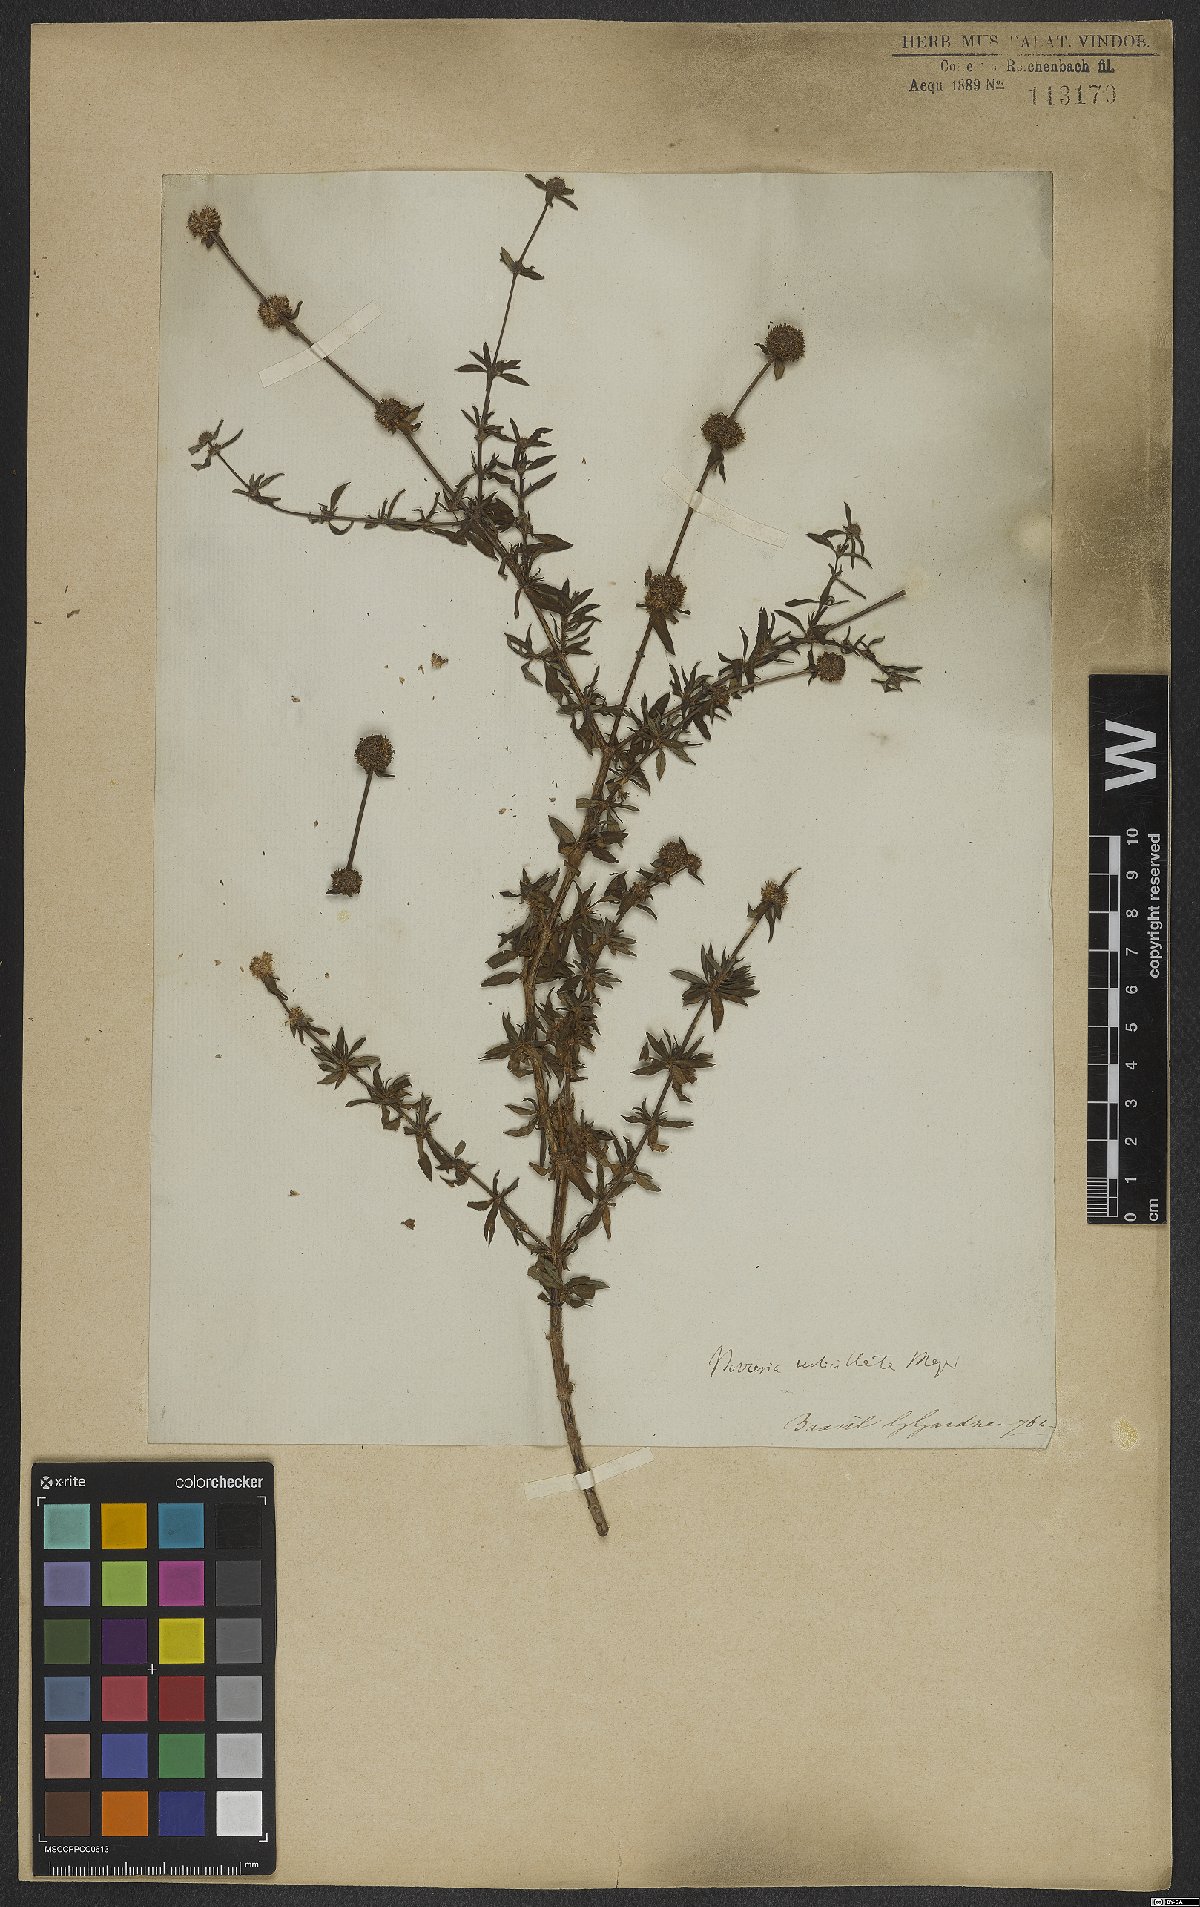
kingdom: Plantae
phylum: Tracheophyta
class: Magnoliopsida
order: Gentianales
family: Rubiaceae
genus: Spermacoce
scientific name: Spermacoce verticillata
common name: Shrubby false buttonweed
